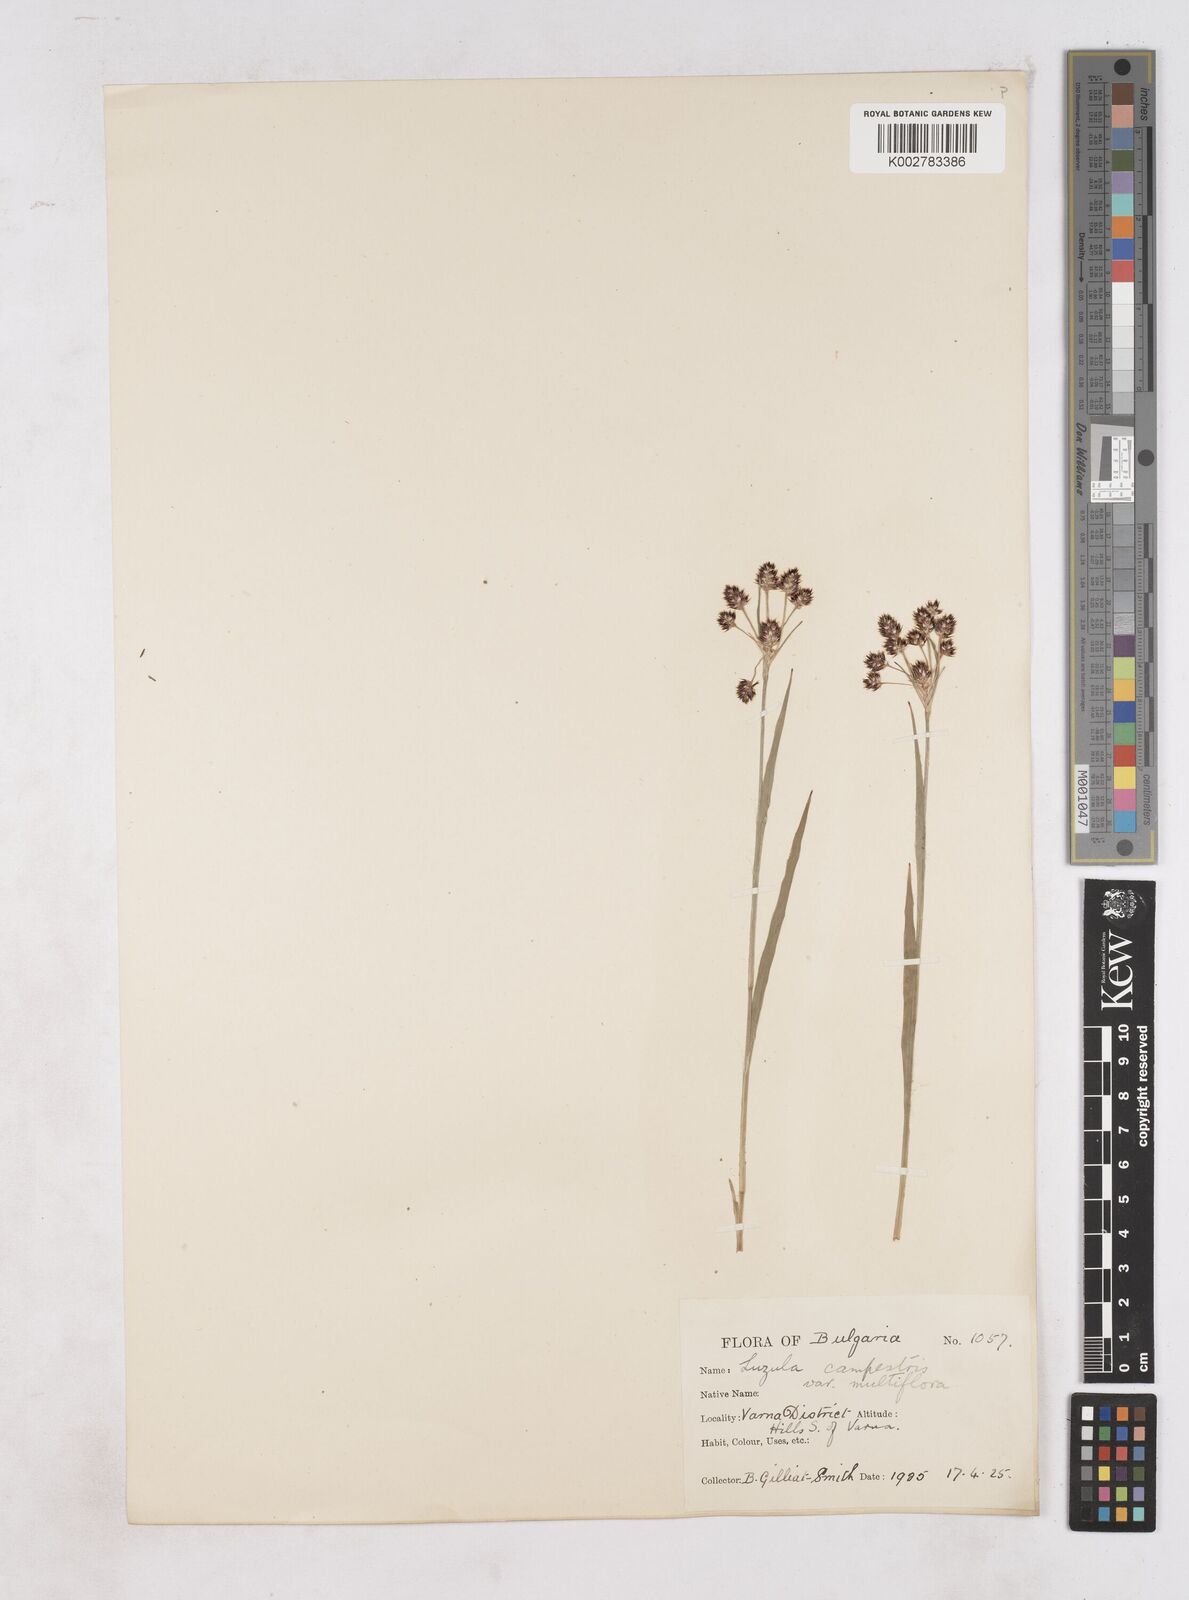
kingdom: Plantae
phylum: Tracheophyta
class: Liliopsida
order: Poales
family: Juncaceae
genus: Luzula
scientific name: Luzula multiflora
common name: Heath wood-rush
